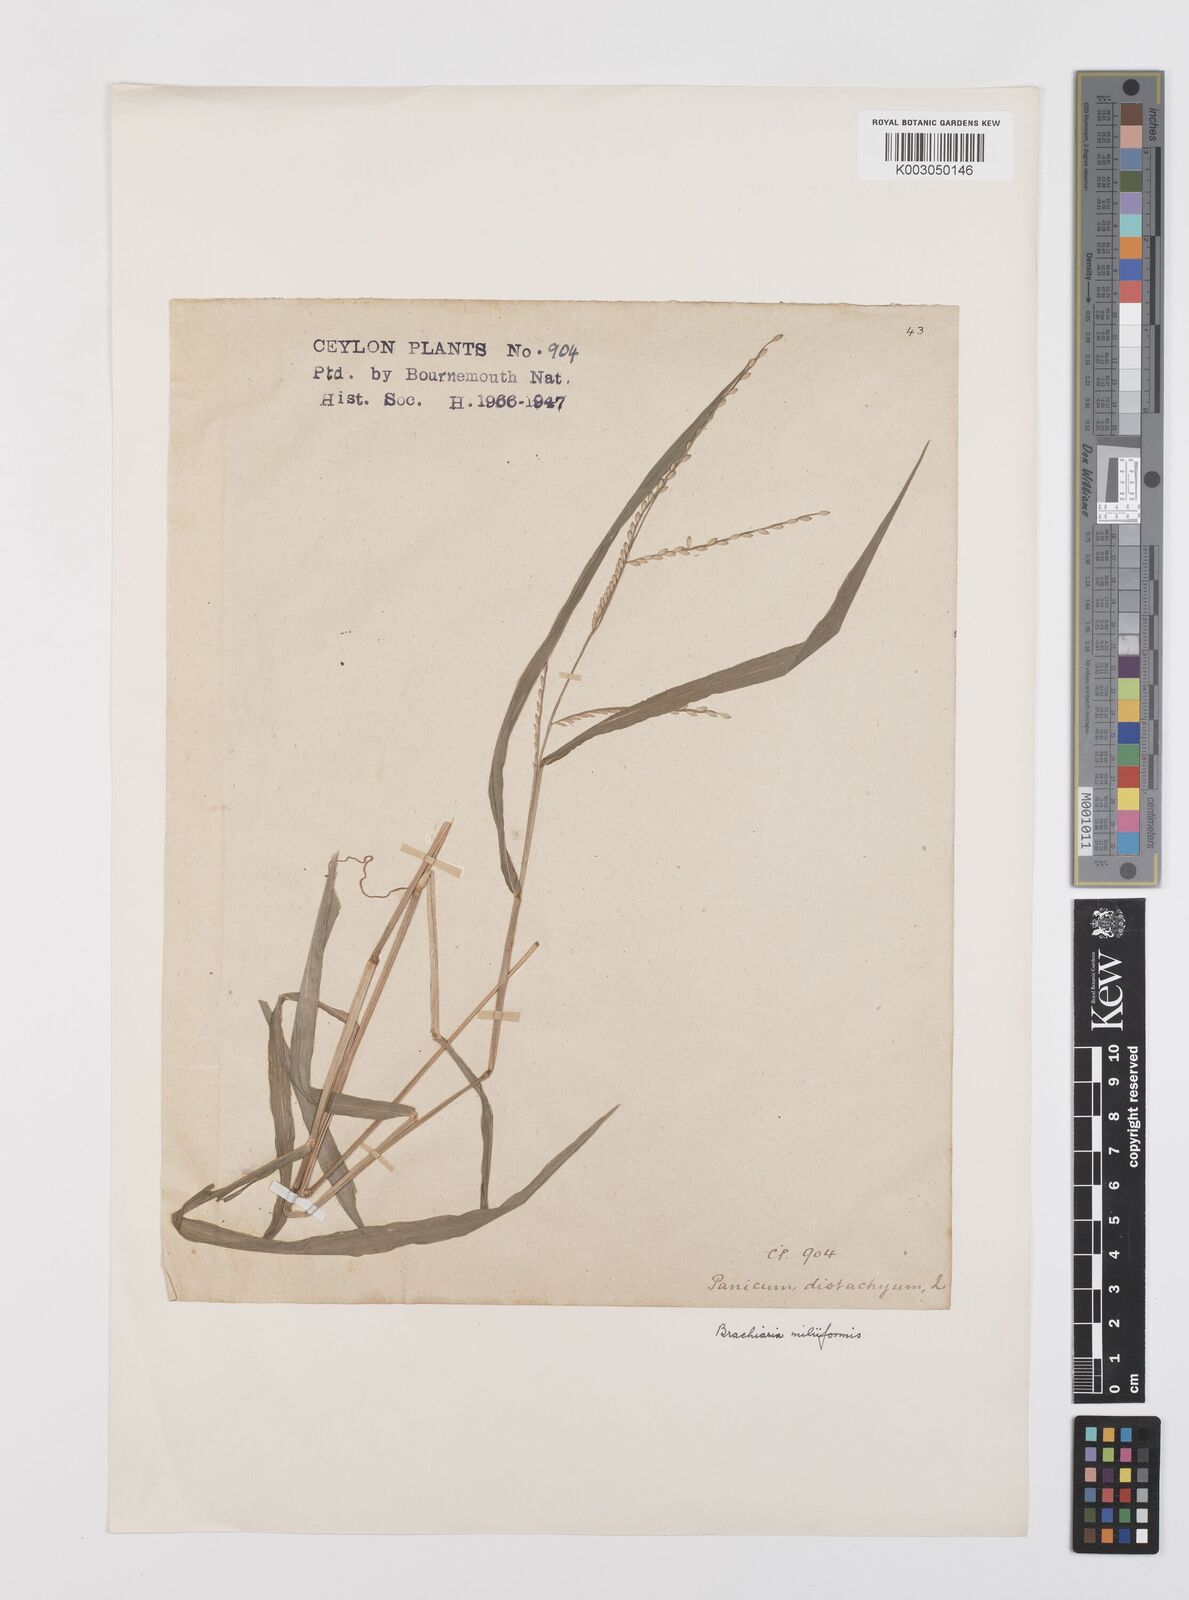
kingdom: Plantae
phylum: Tracheophyta
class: Liliopsida
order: Poales
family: Poaceae
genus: Urochloa
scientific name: Urochloa subquadripara
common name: Armgrass millet
